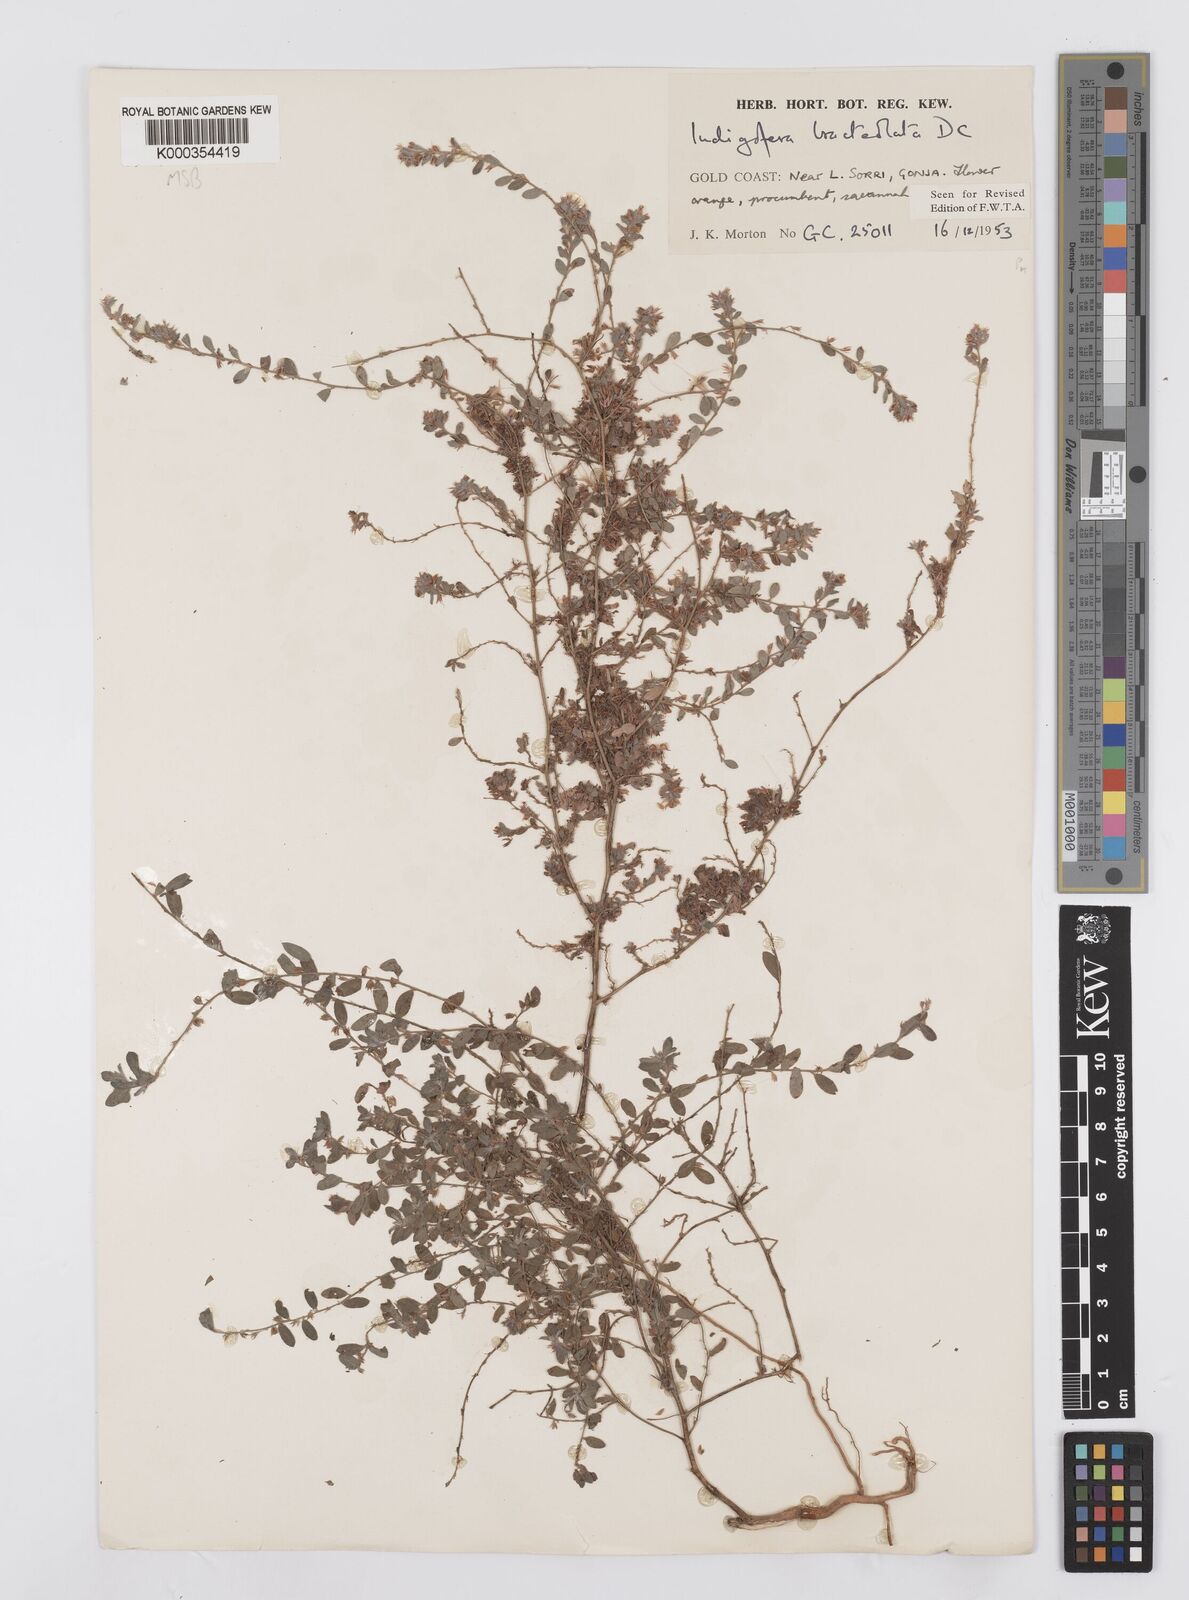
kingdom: Plantae
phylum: Tracheophyta
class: Magnoliopsida
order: Fabales
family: Fabaceae
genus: Indigofera
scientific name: Indigofera bracteolata
